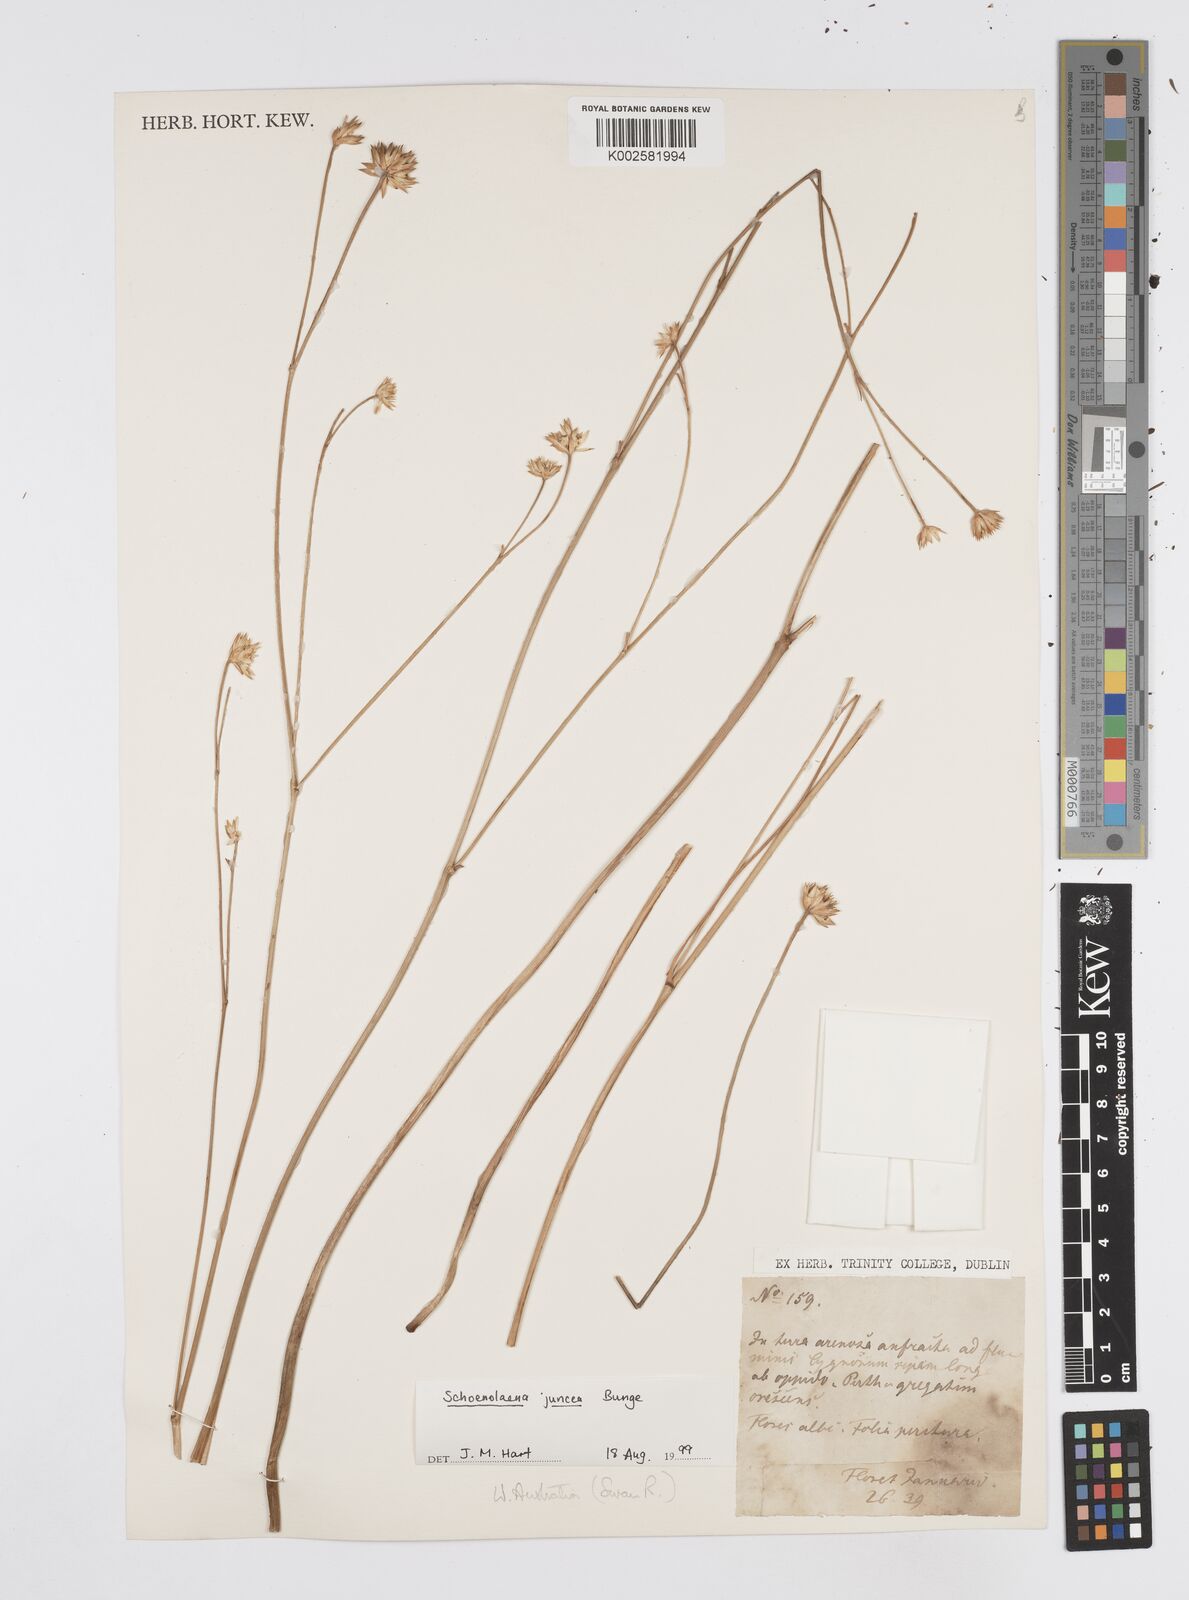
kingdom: Plantae
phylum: Tracheophyta
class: Magnoliopsida
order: Apiales
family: Apiaceae
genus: Schoenolaena
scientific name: Schoenolaena juncea
